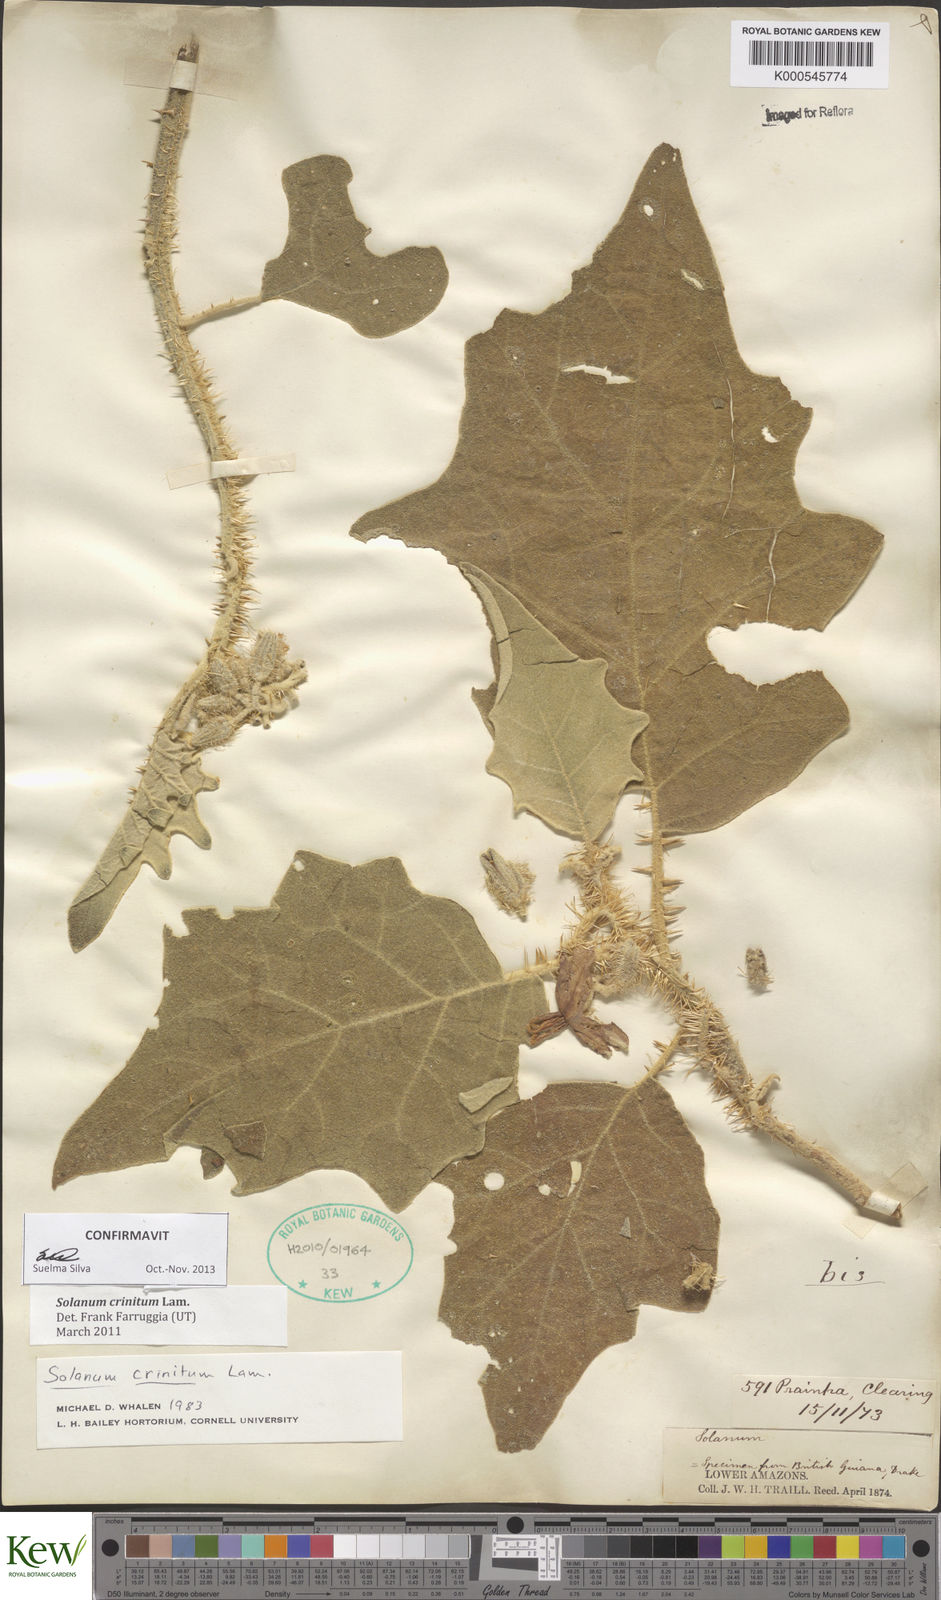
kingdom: Plantae
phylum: Tracheophyta
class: Magnoliopsida
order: Solanales
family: Solanaceae
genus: Solanum
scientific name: Solanum crinitum
